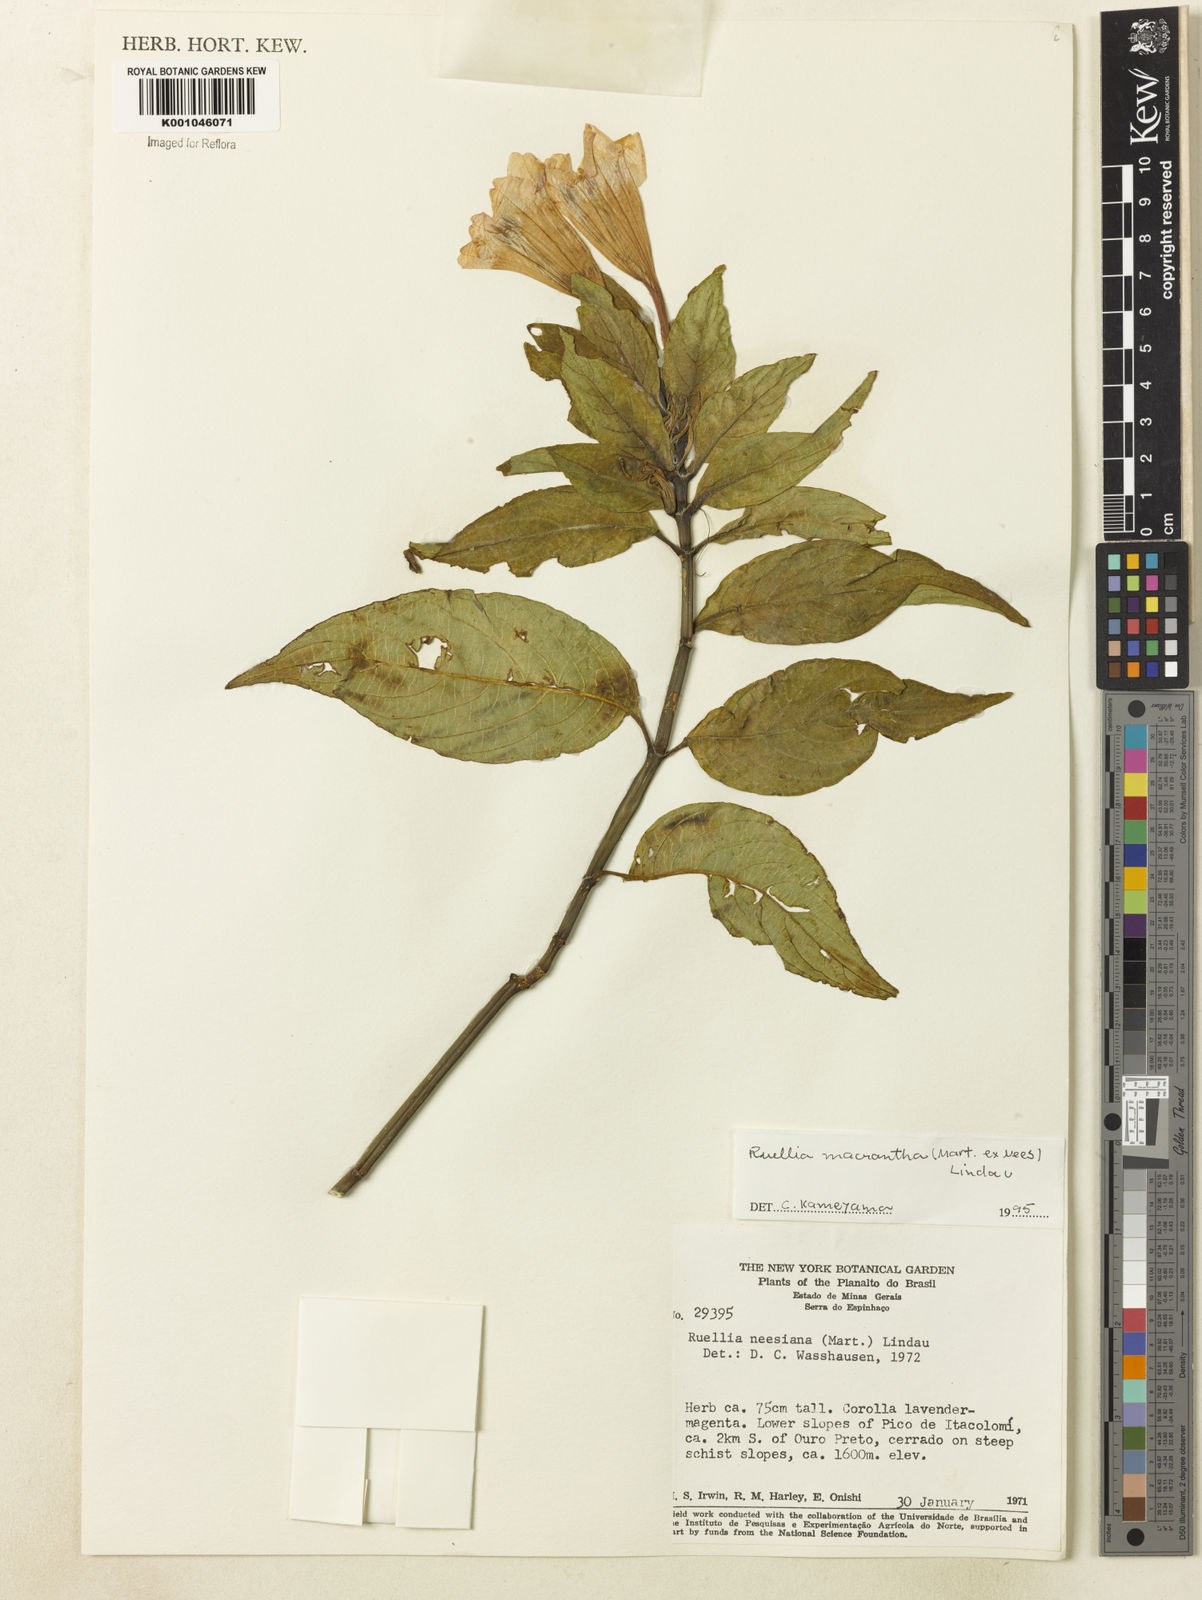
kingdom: Plantae
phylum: Tracheophyta
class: Magnoliopsida
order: Lamiales
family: Acanthaceae
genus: Ruellia
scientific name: Ruellia
